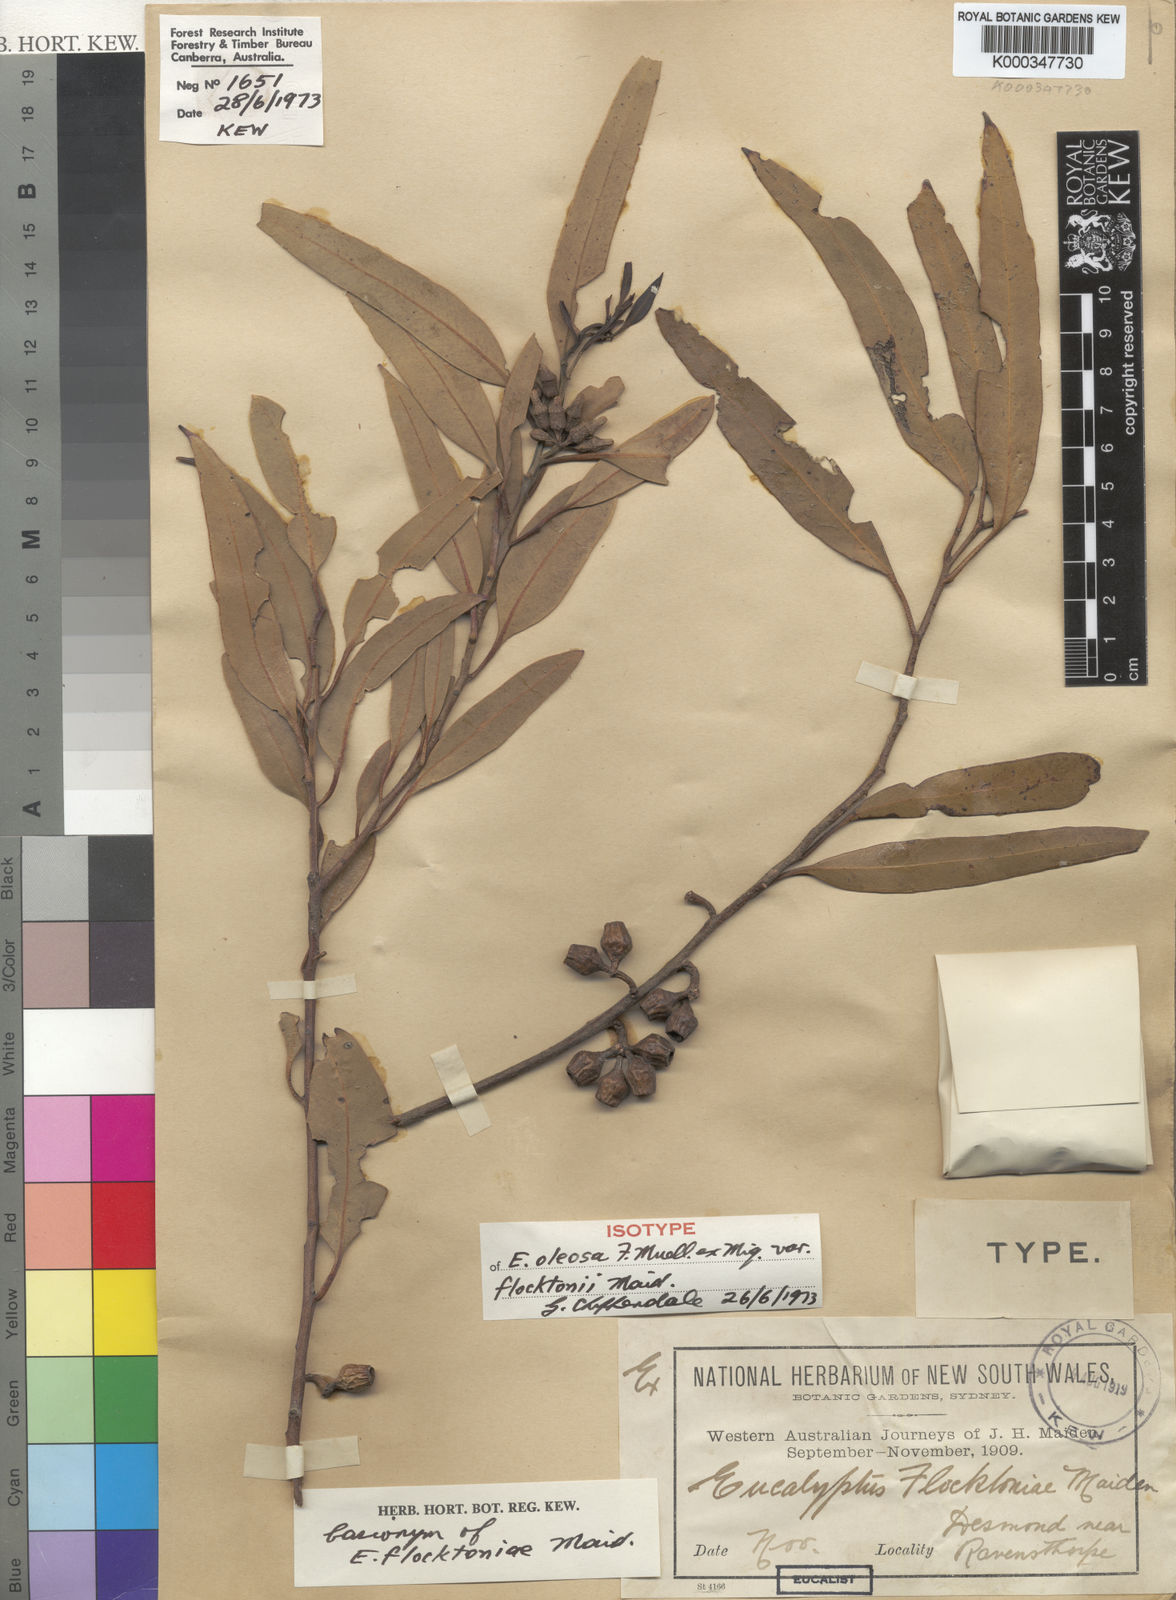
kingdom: Plantae
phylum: Tracheophyta
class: Magnoliopsida
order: Myrtales
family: Myrtaceae
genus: Eucalyptus
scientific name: Eucalyptus flocktoniae
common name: Flockton's mallee
